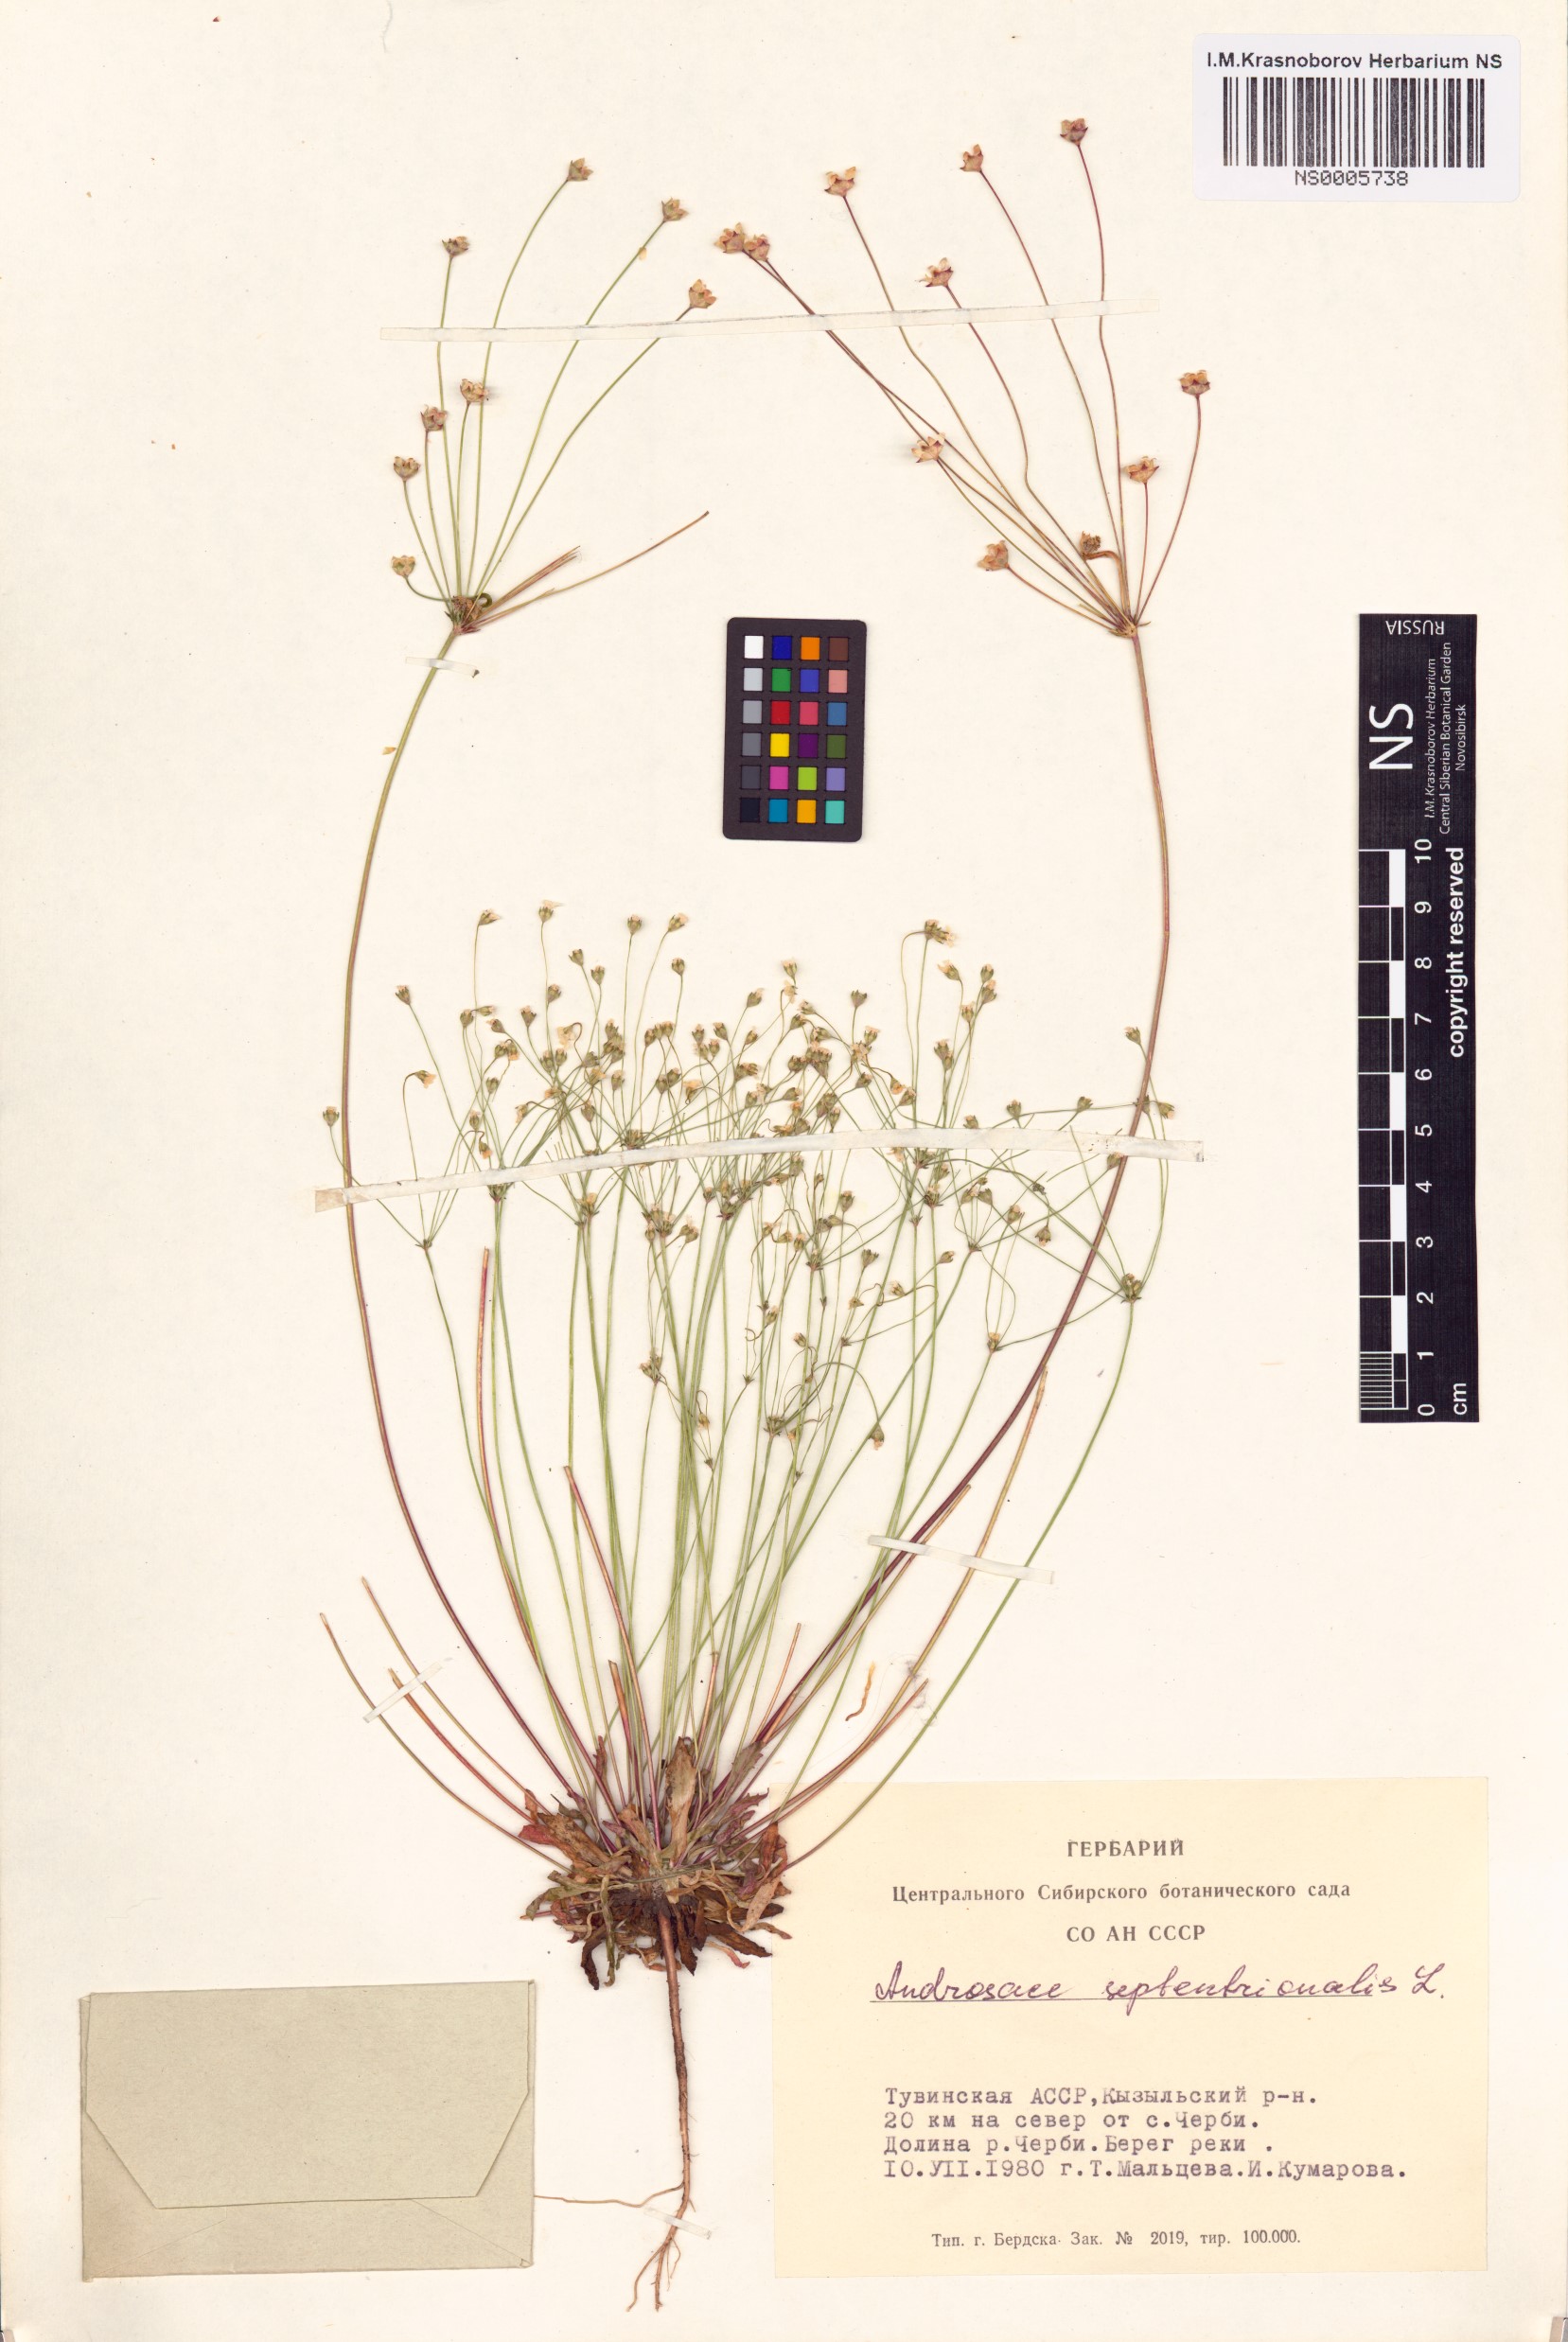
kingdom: Plantae
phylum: Tracheophyta
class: Magnoliopsida
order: Ericales
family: Primulaceae
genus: Androsace
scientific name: Androsace septentrionalis
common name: Hairy northern fairy-candelabra
